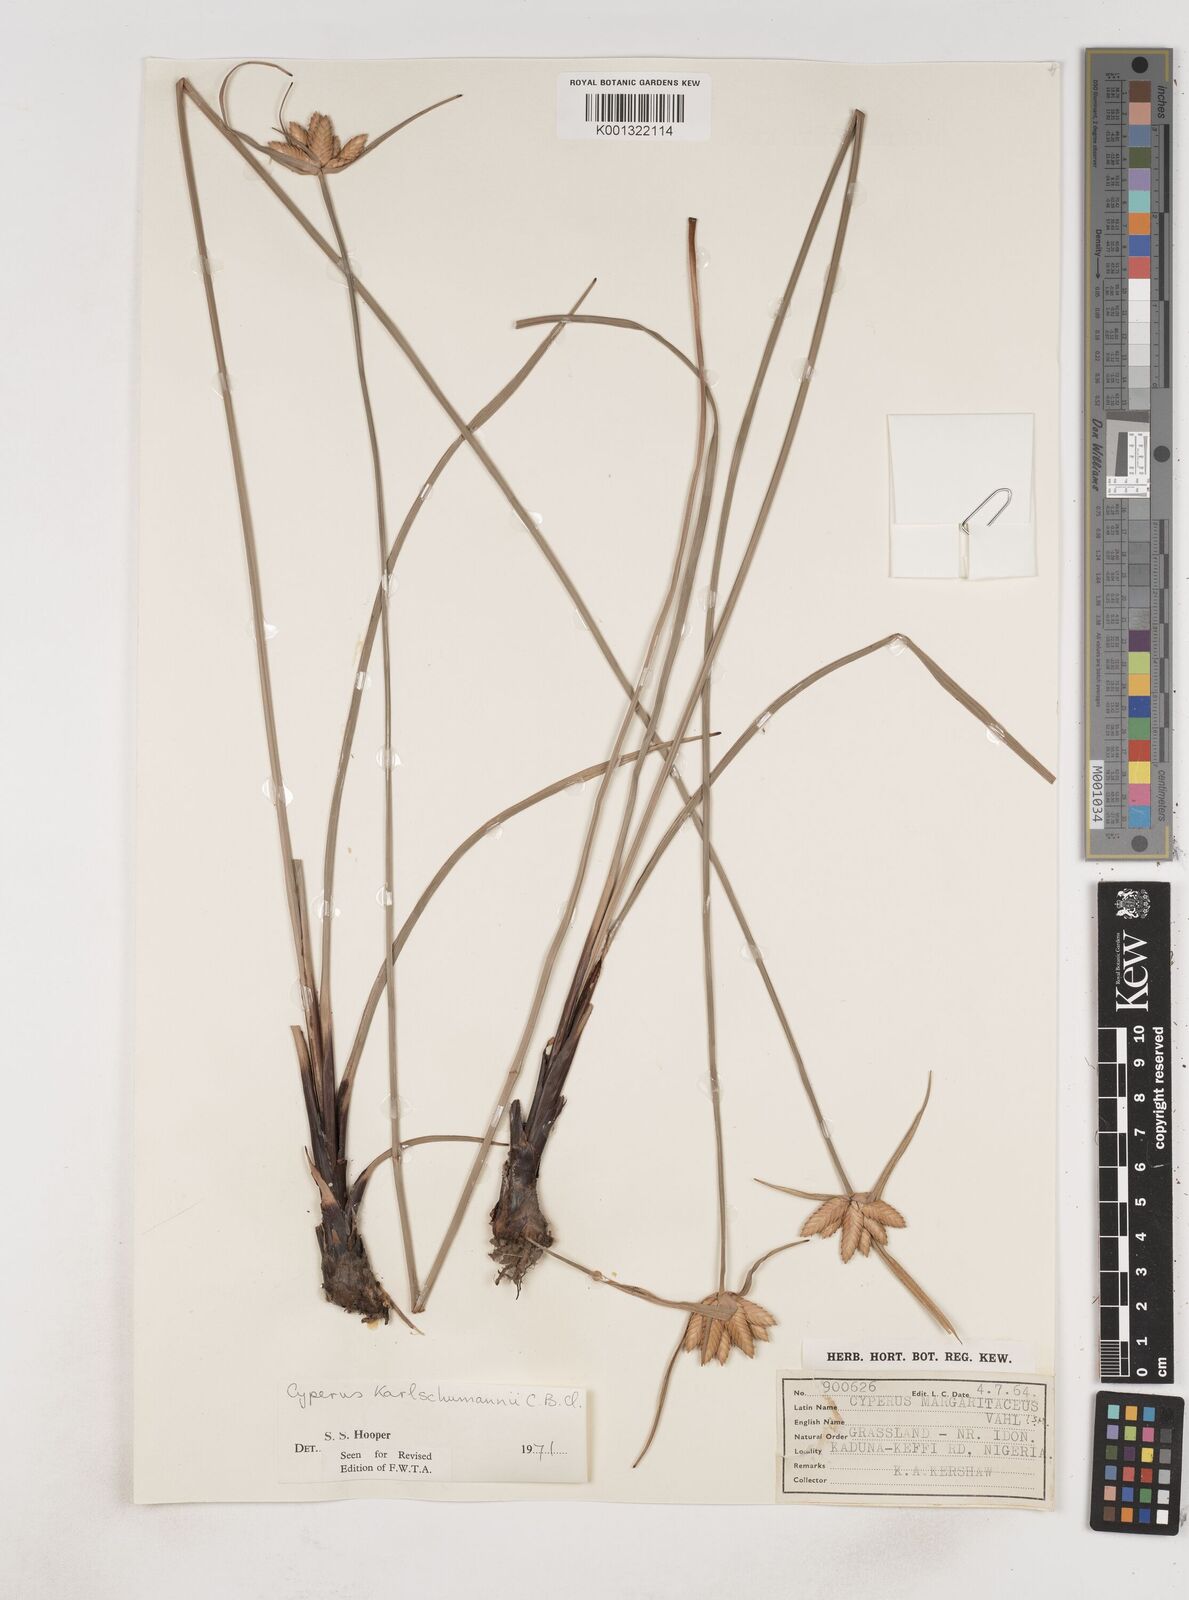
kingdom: Plantae
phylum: Tracheophyta
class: Liliopsida
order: Poales
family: Cyperaceae
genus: Cyperus
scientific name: Cyperus karlschumannii
